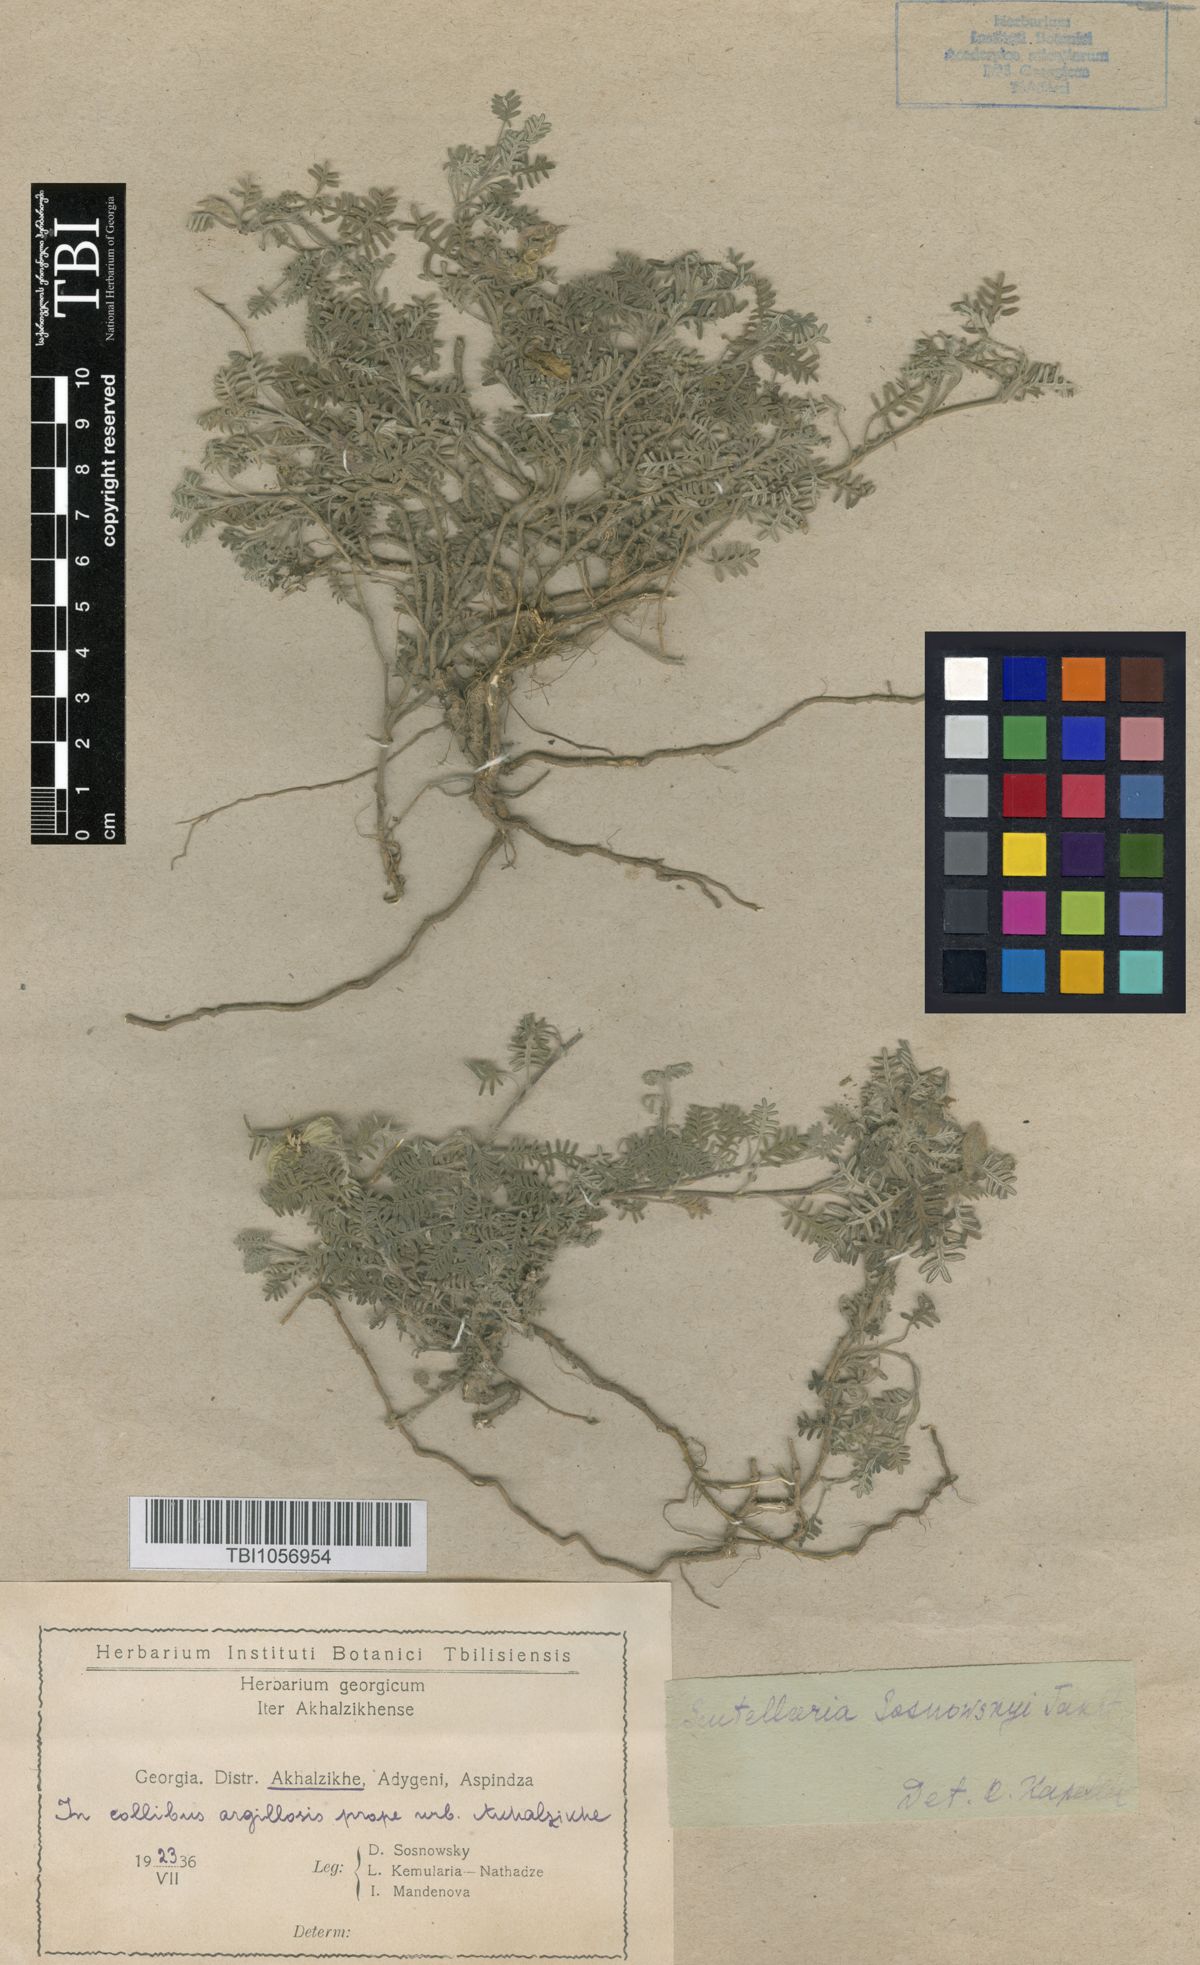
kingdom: Plantae
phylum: Tracheophyta
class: Magnoliopsida
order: Lamiales
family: Lamiaceae
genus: Scutellaria
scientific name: Scutellaria sosnowskyi
